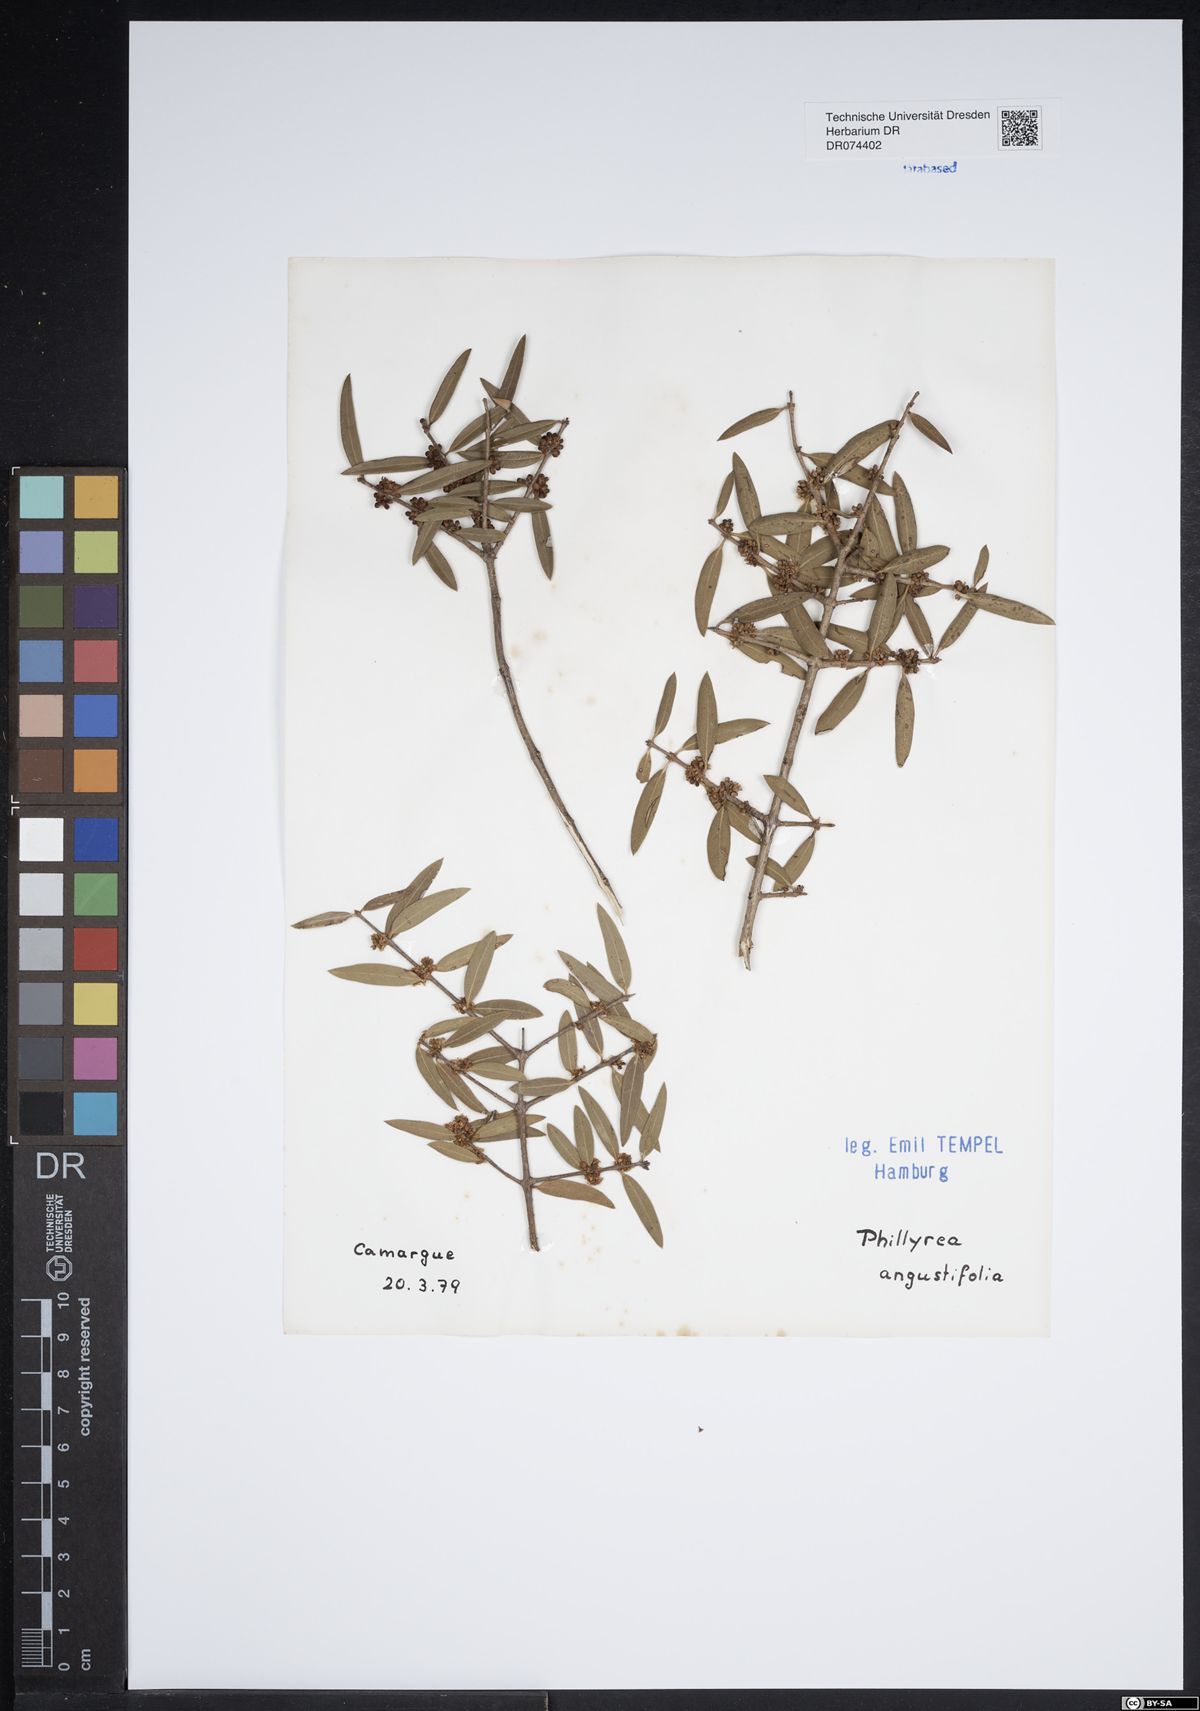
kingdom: Plantae
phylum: Tracheophyta
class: Magnoliopsida
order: Lamiales
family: Oleaceae
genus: Phillyrea
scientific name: Phillyrea angustifolia
